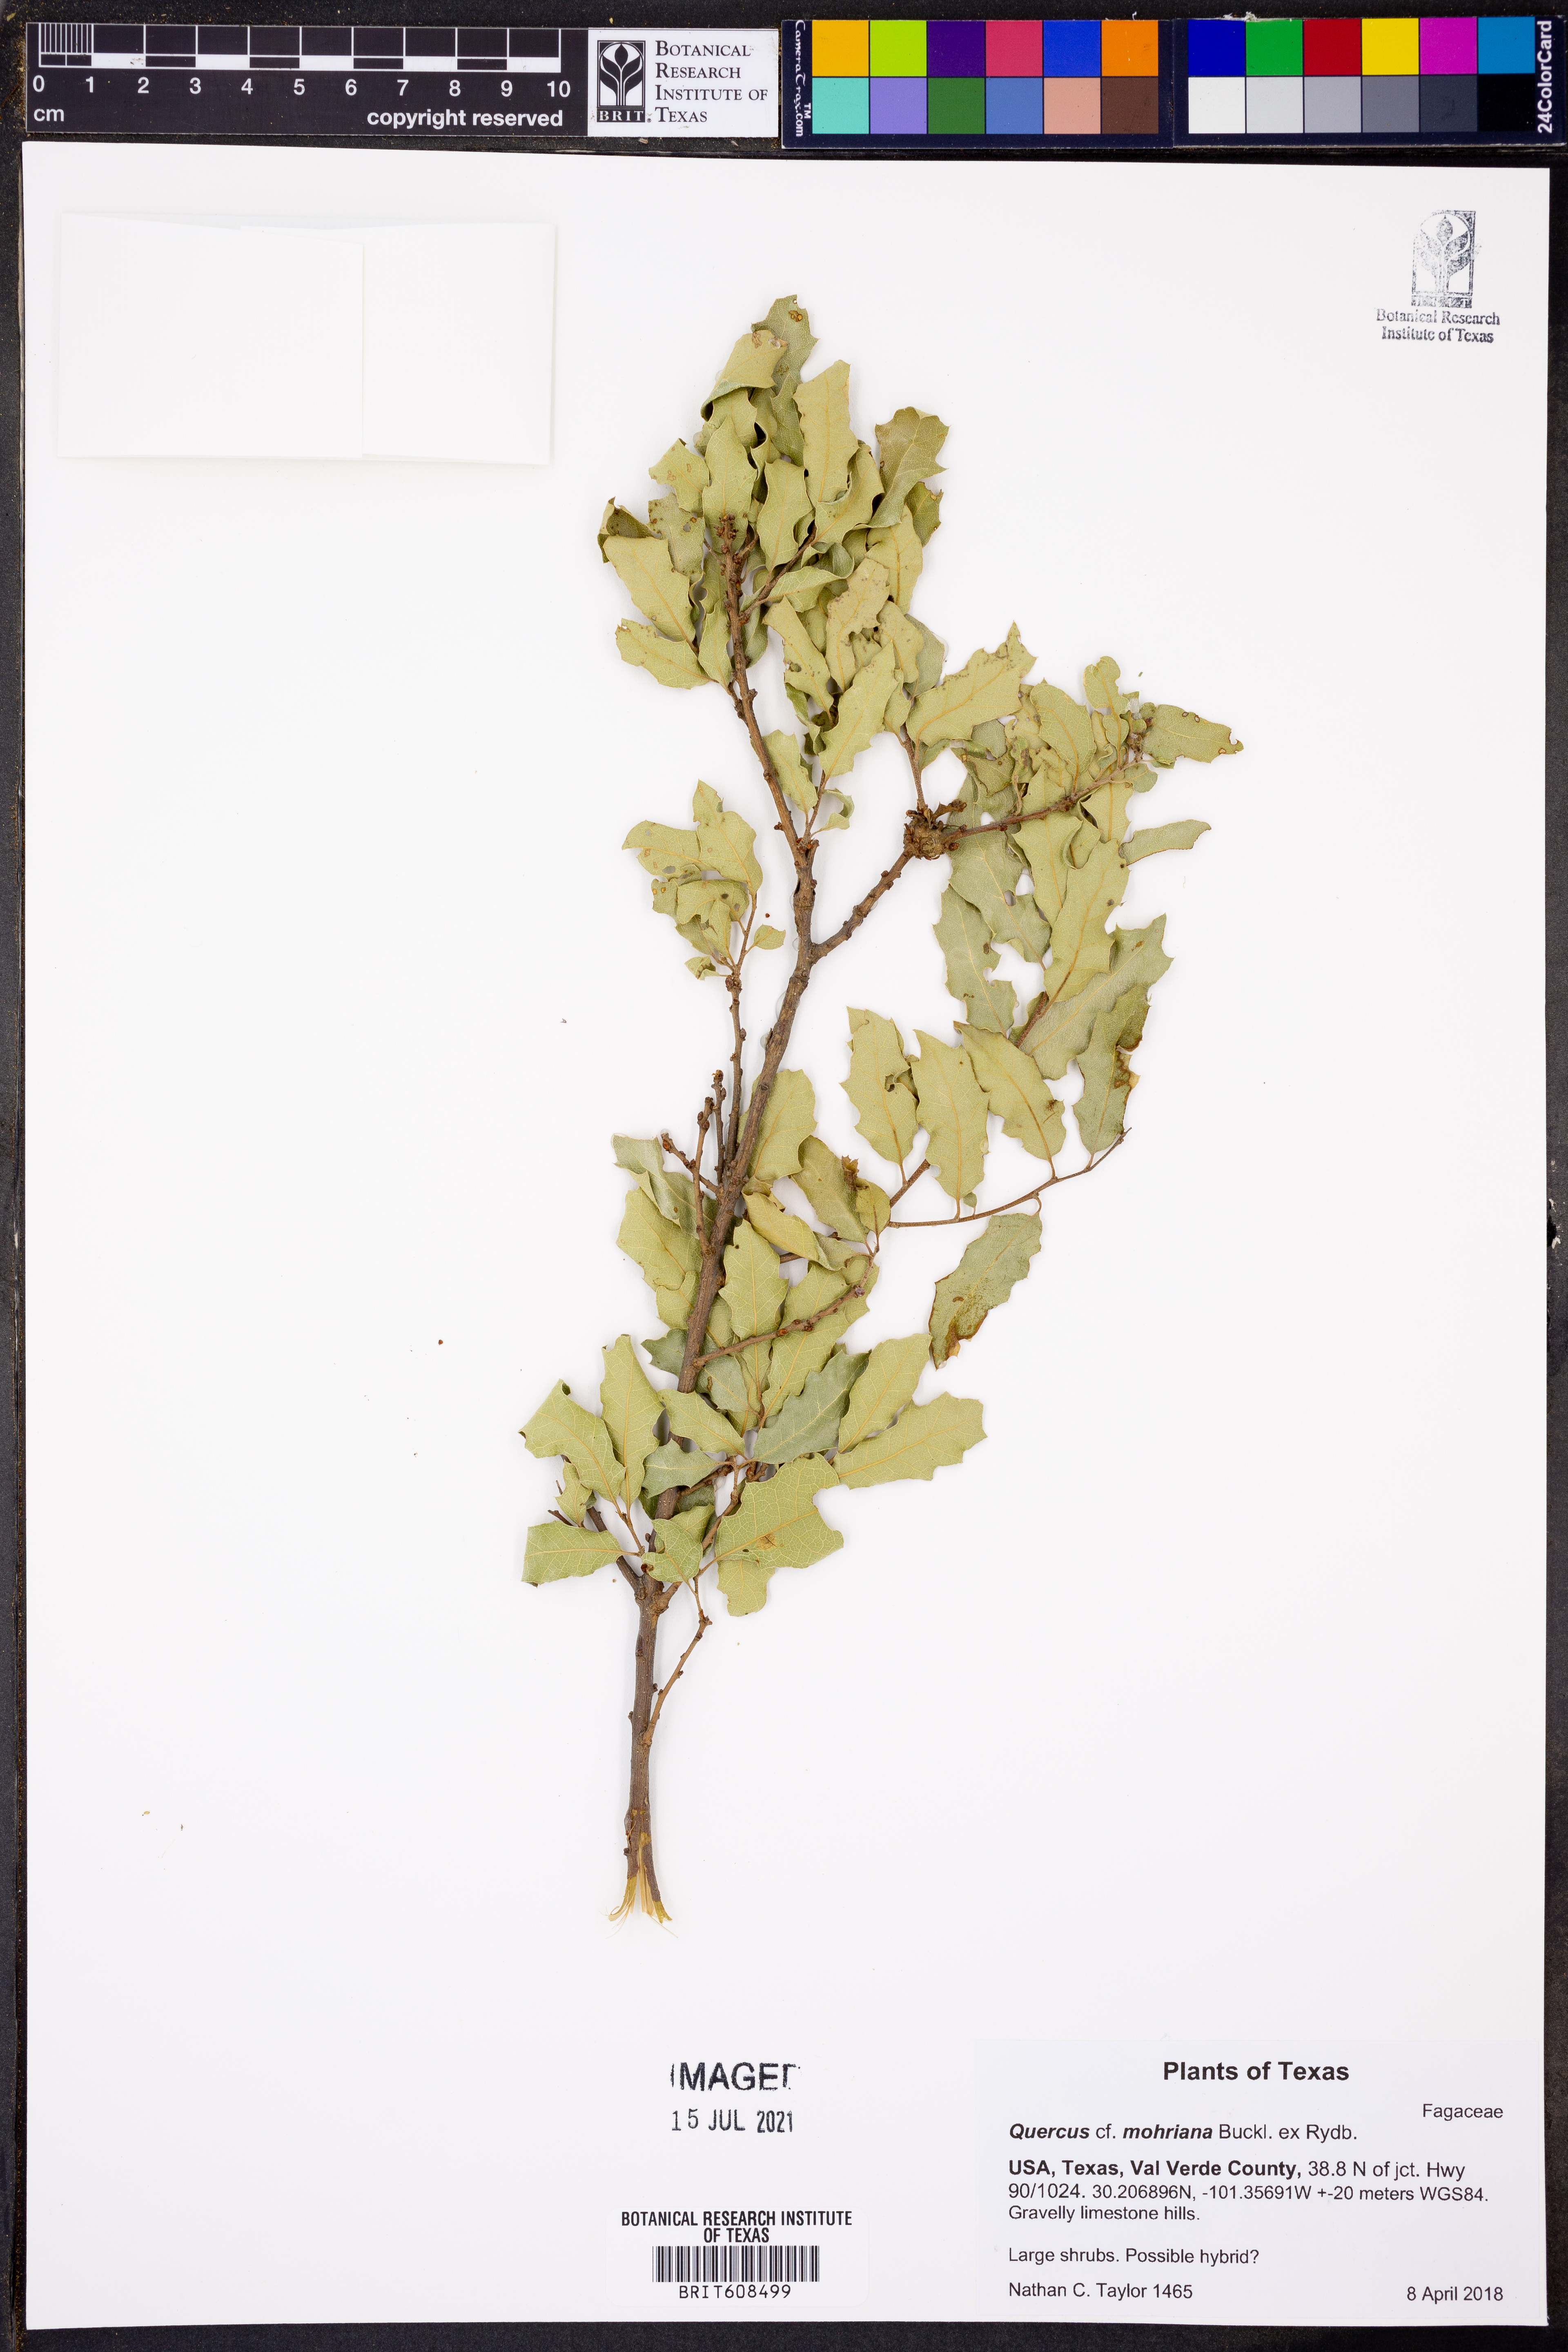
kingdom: Plantae
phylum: Tracheophyta
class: Magnoliopsida
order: Fagales
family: Fagaceae
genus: Quercus
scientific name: Quercus mohriana
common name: Mohr oak
